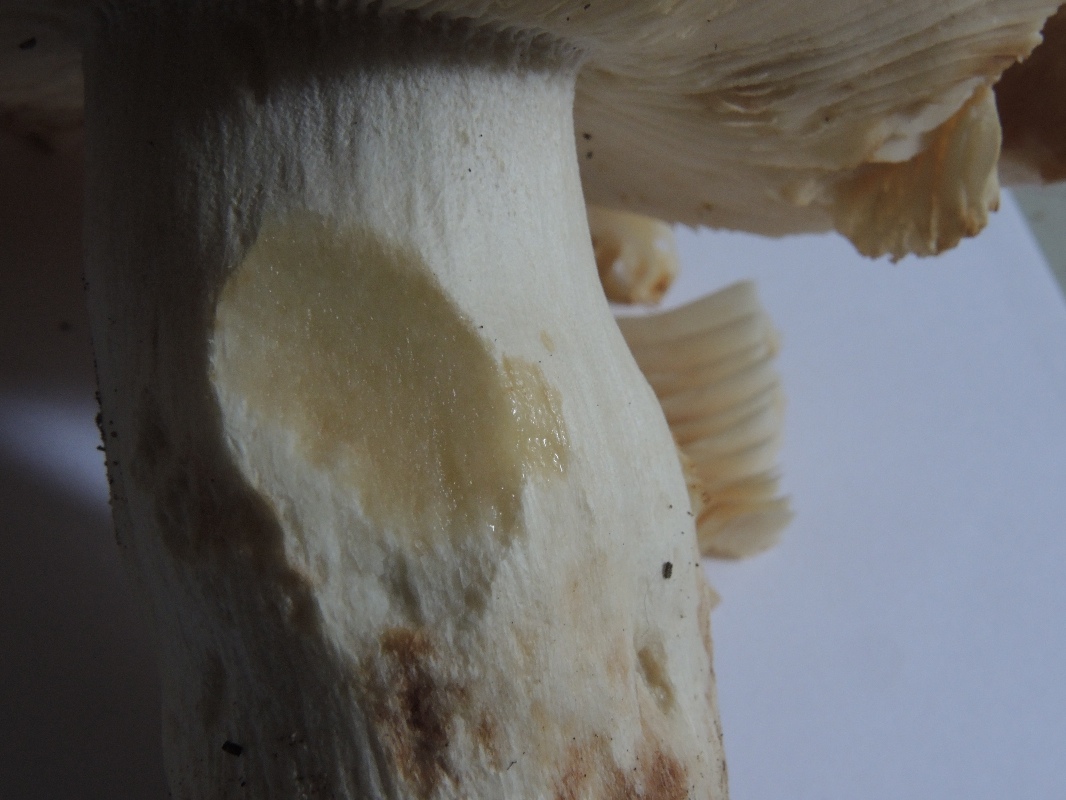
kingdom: Fungi
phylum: Basidiomycota
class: Agaricomycetes
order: Russulales
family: Russulaceae
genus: Russula
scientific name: Russula foetens
